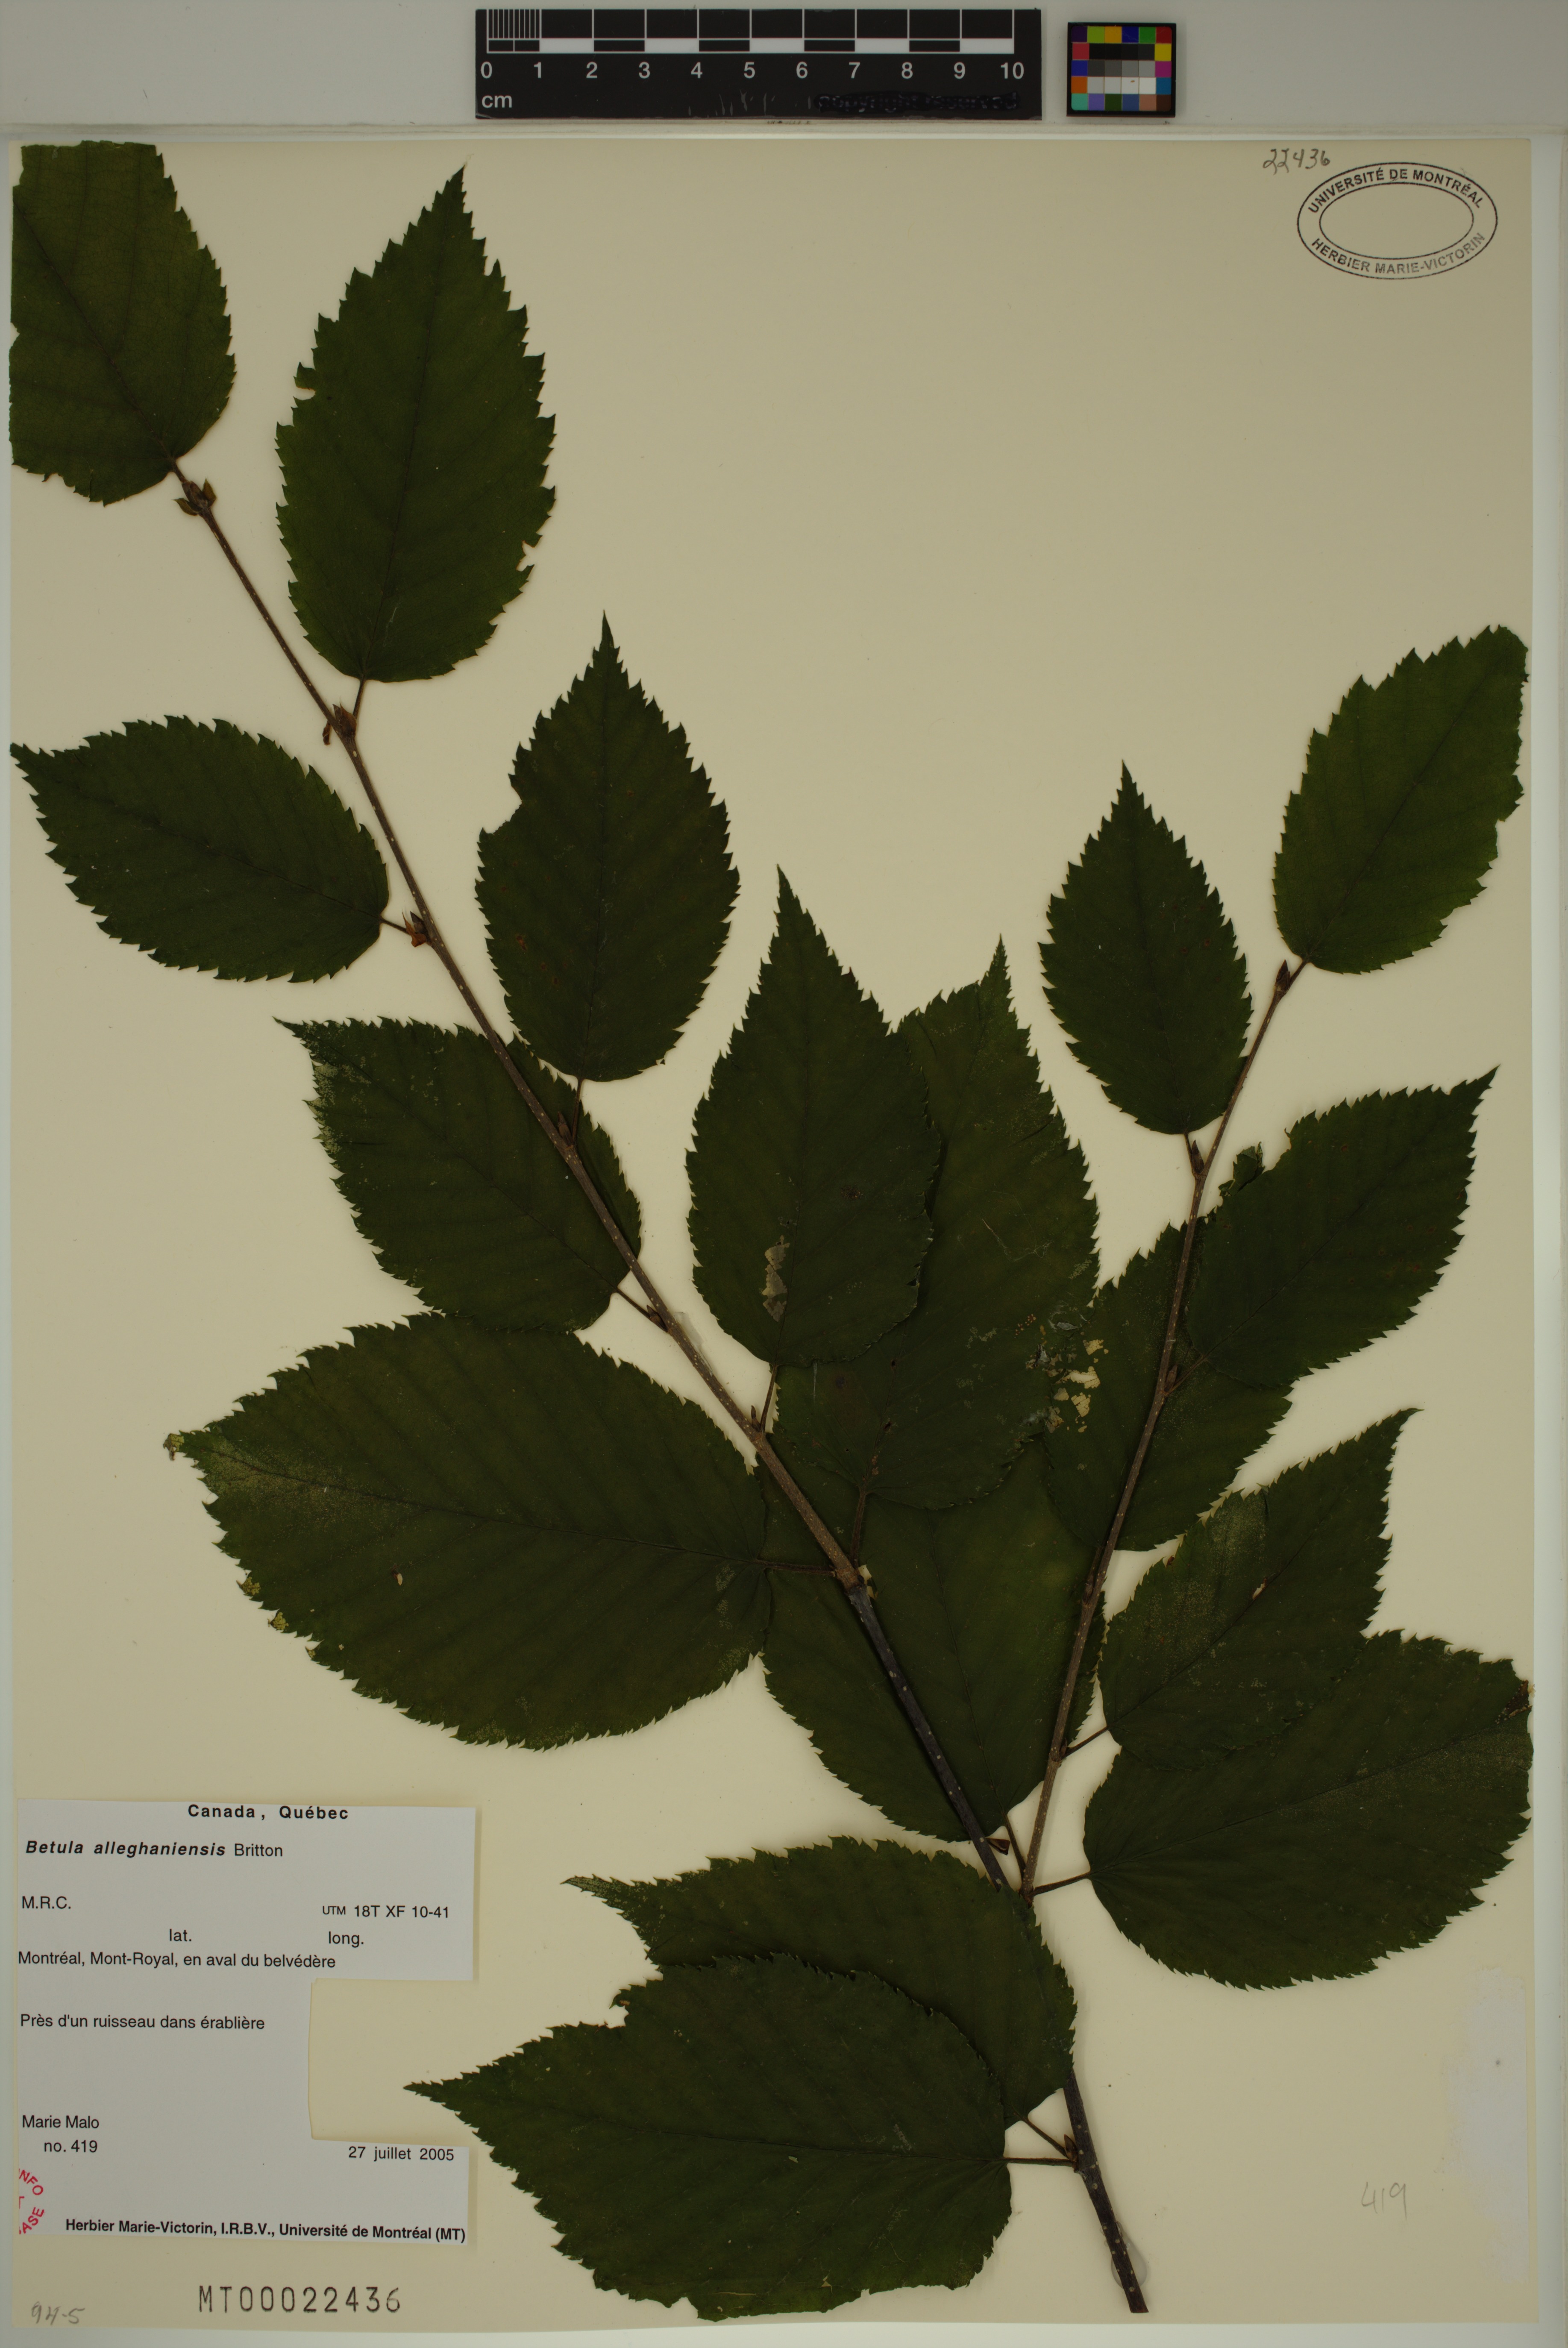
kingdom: Plantae
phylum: Tracheophyta
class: Magnoliopsida
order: Fagales
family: Betulaceae
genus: Betula
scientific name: Betula alleghaniensis
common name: Yellow birch
